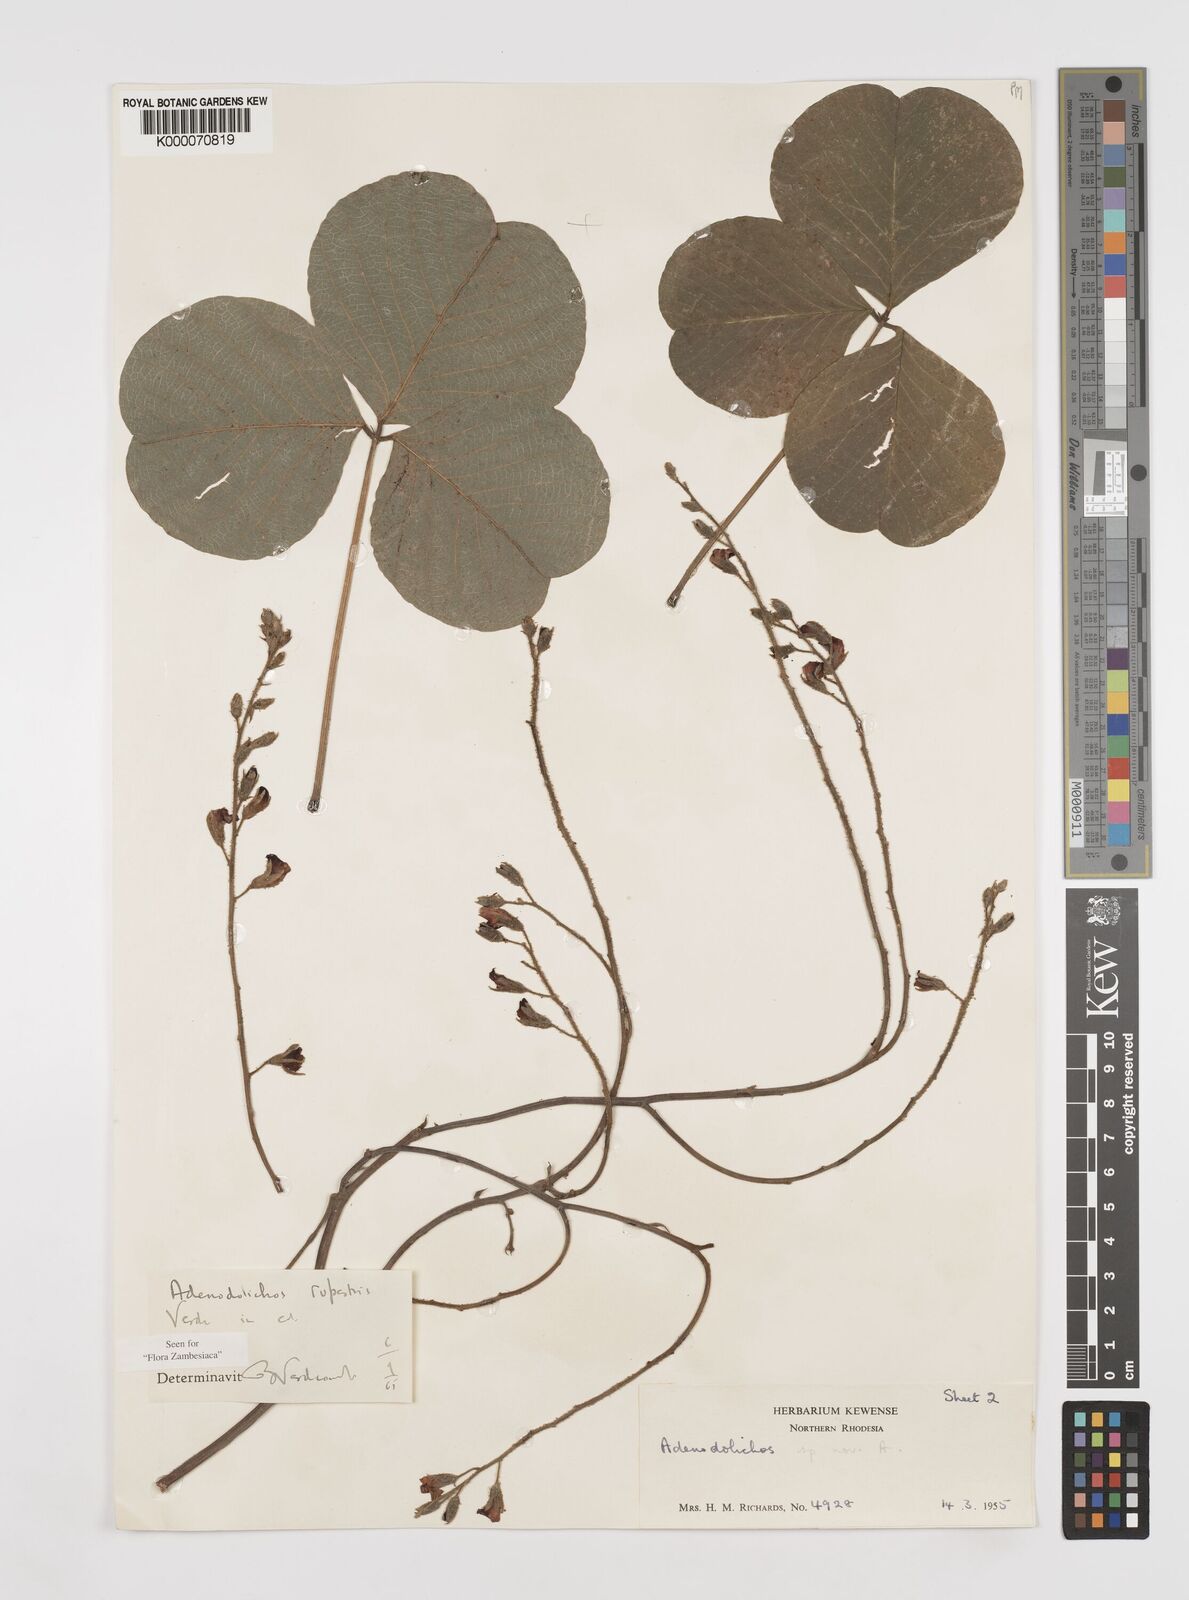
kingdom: Plantae
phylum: Tracheophyta
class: Magnoliopsida
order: Fabales
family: Fabaceae
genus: Adenodolichos
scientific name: Adenodolichos rupestris
